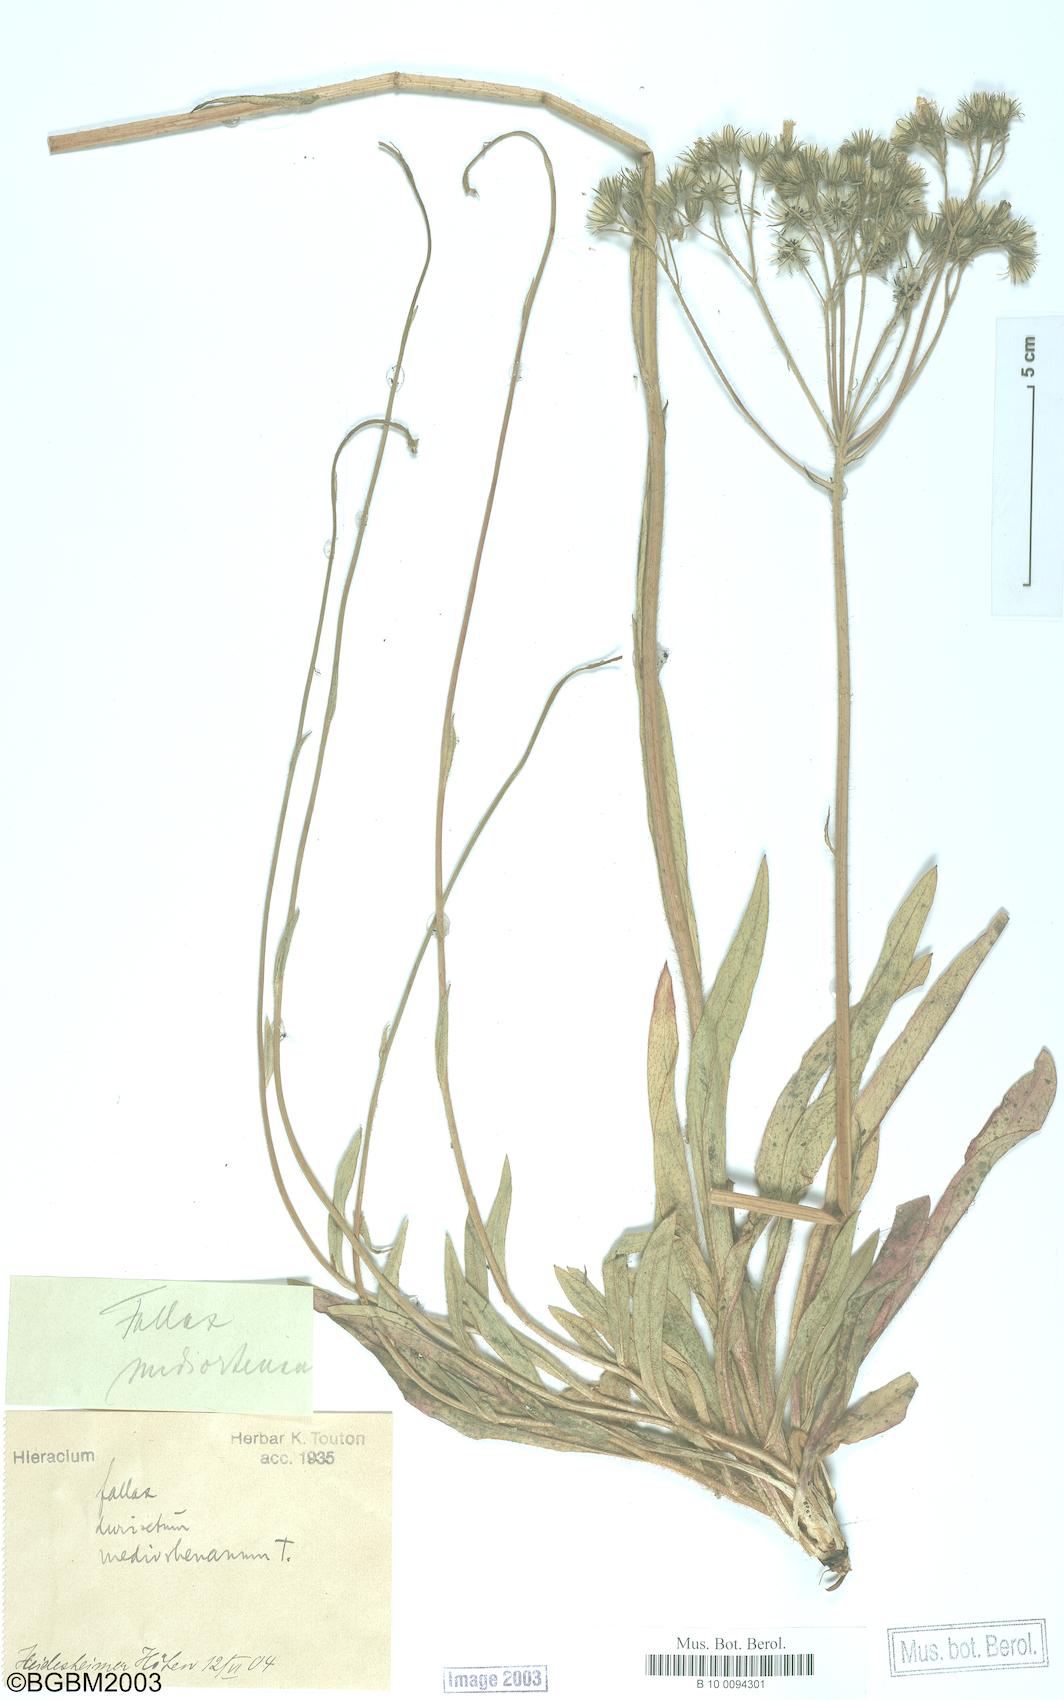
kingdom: Plantae
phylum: Tracheophyta
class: Magnoliopsida
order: Asterales
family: Asteraceae
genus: Hieracium
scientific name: Hieracium fallax
